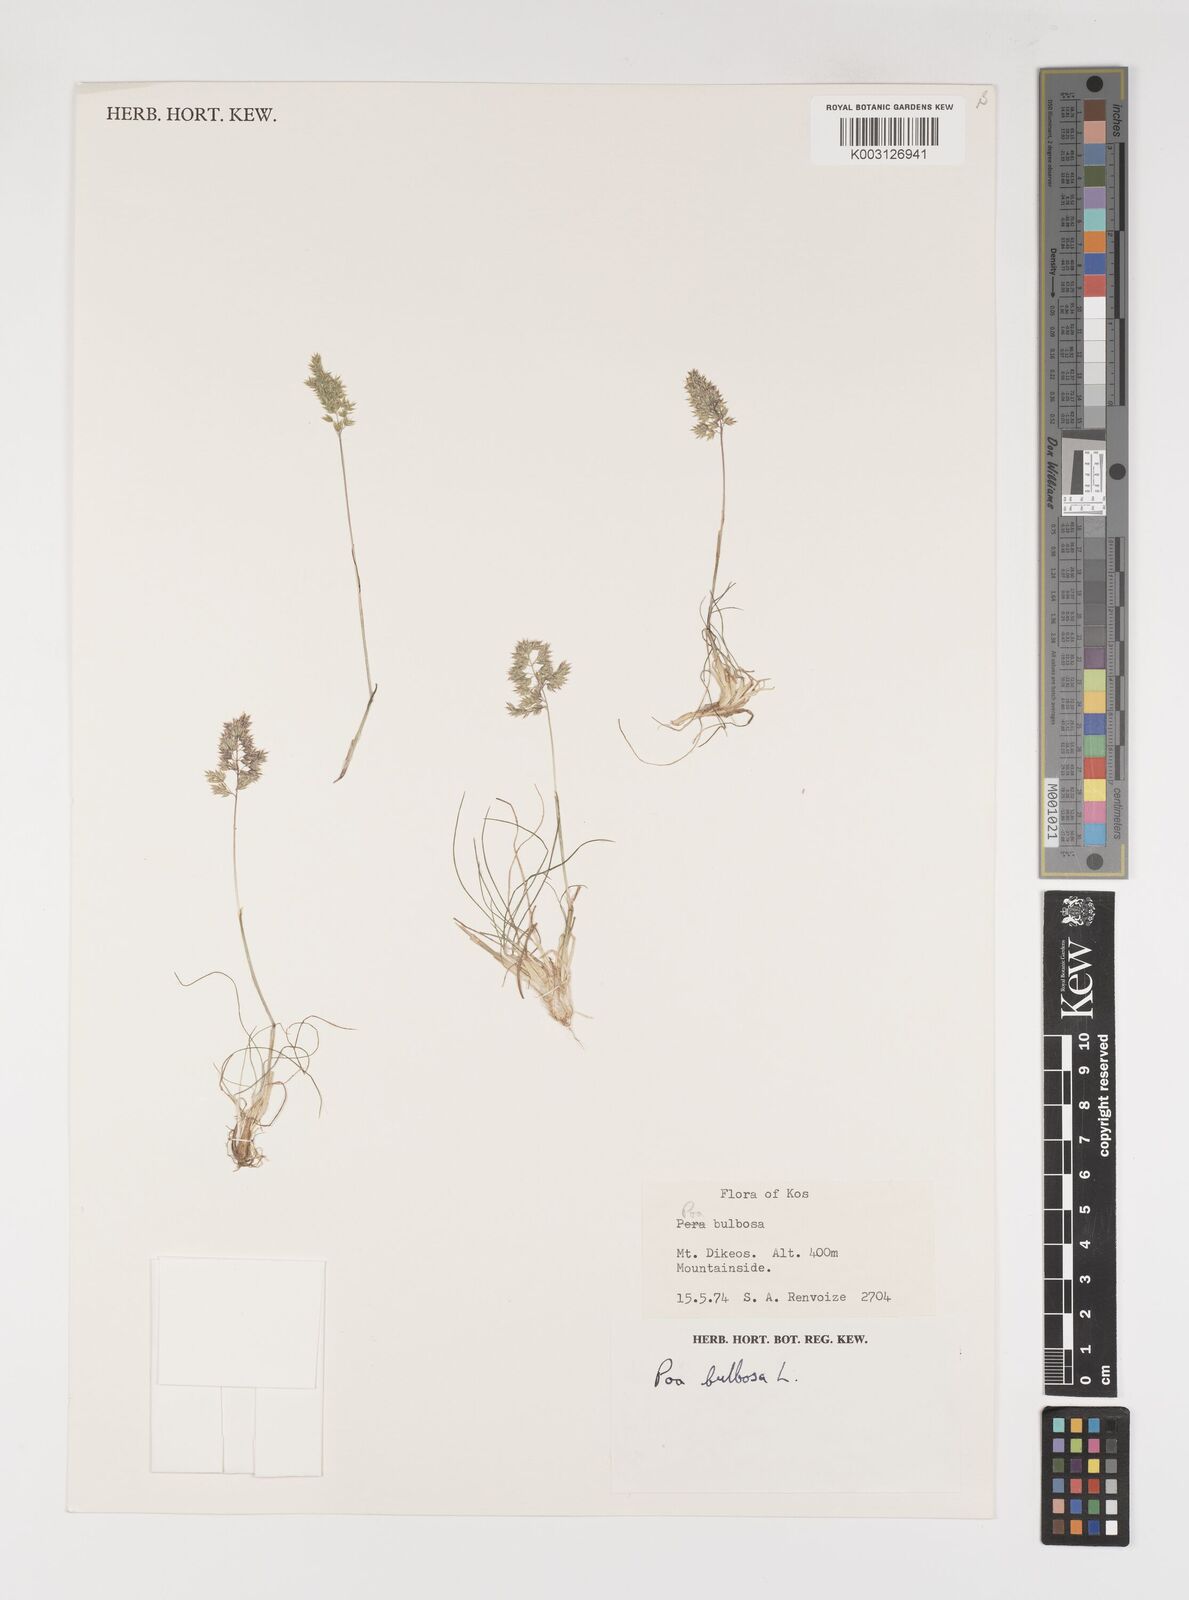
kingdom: Plantae
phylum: Tracheophyta
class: Liliopsida
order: Poales
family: Poaceae
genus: Poa
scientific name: Poa bulbosa
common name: Bulbous bluegrass
